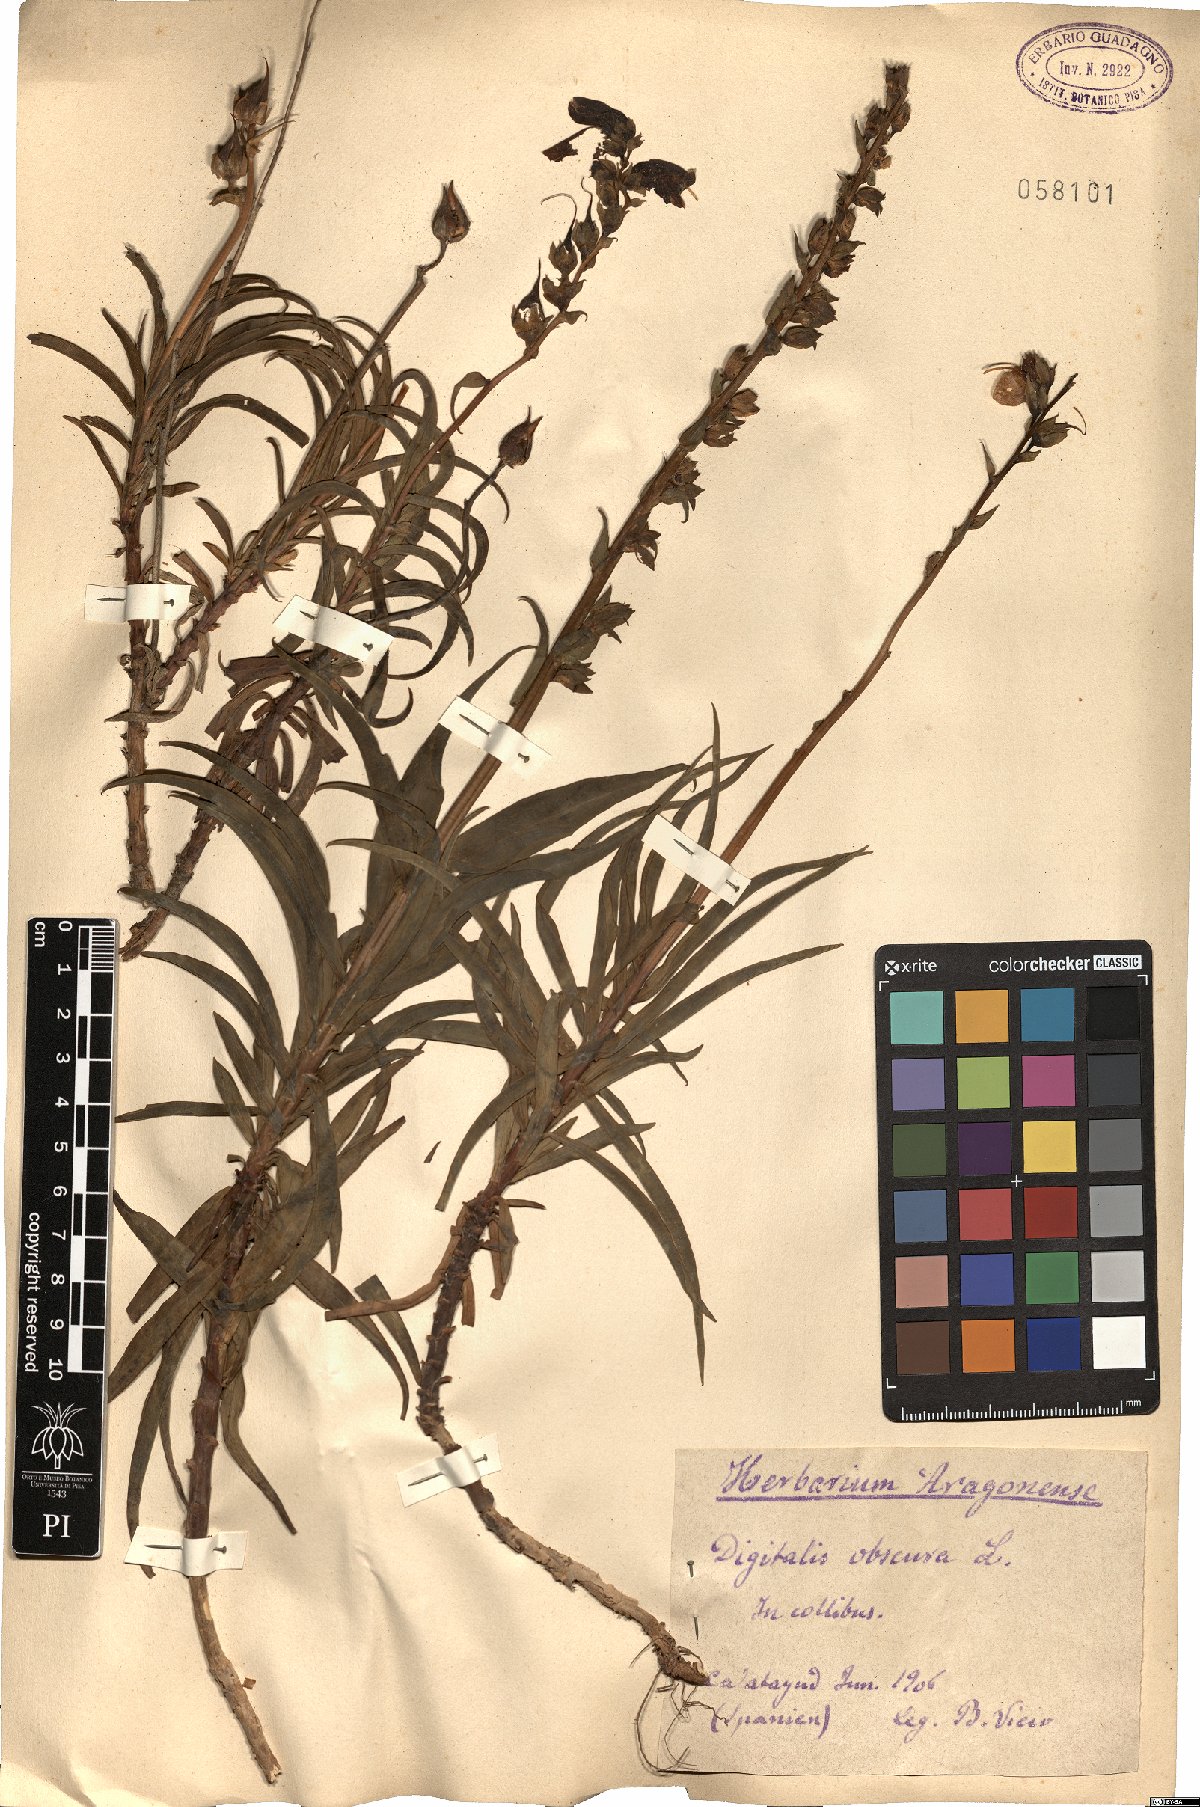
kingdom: Plantae
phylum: Tracheophyta
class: Magnoliopsida
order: Lamiales
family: Plantaginaceae
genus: Digitalis
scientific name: Digitalis obscura
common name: Willow-leaf foxglove
